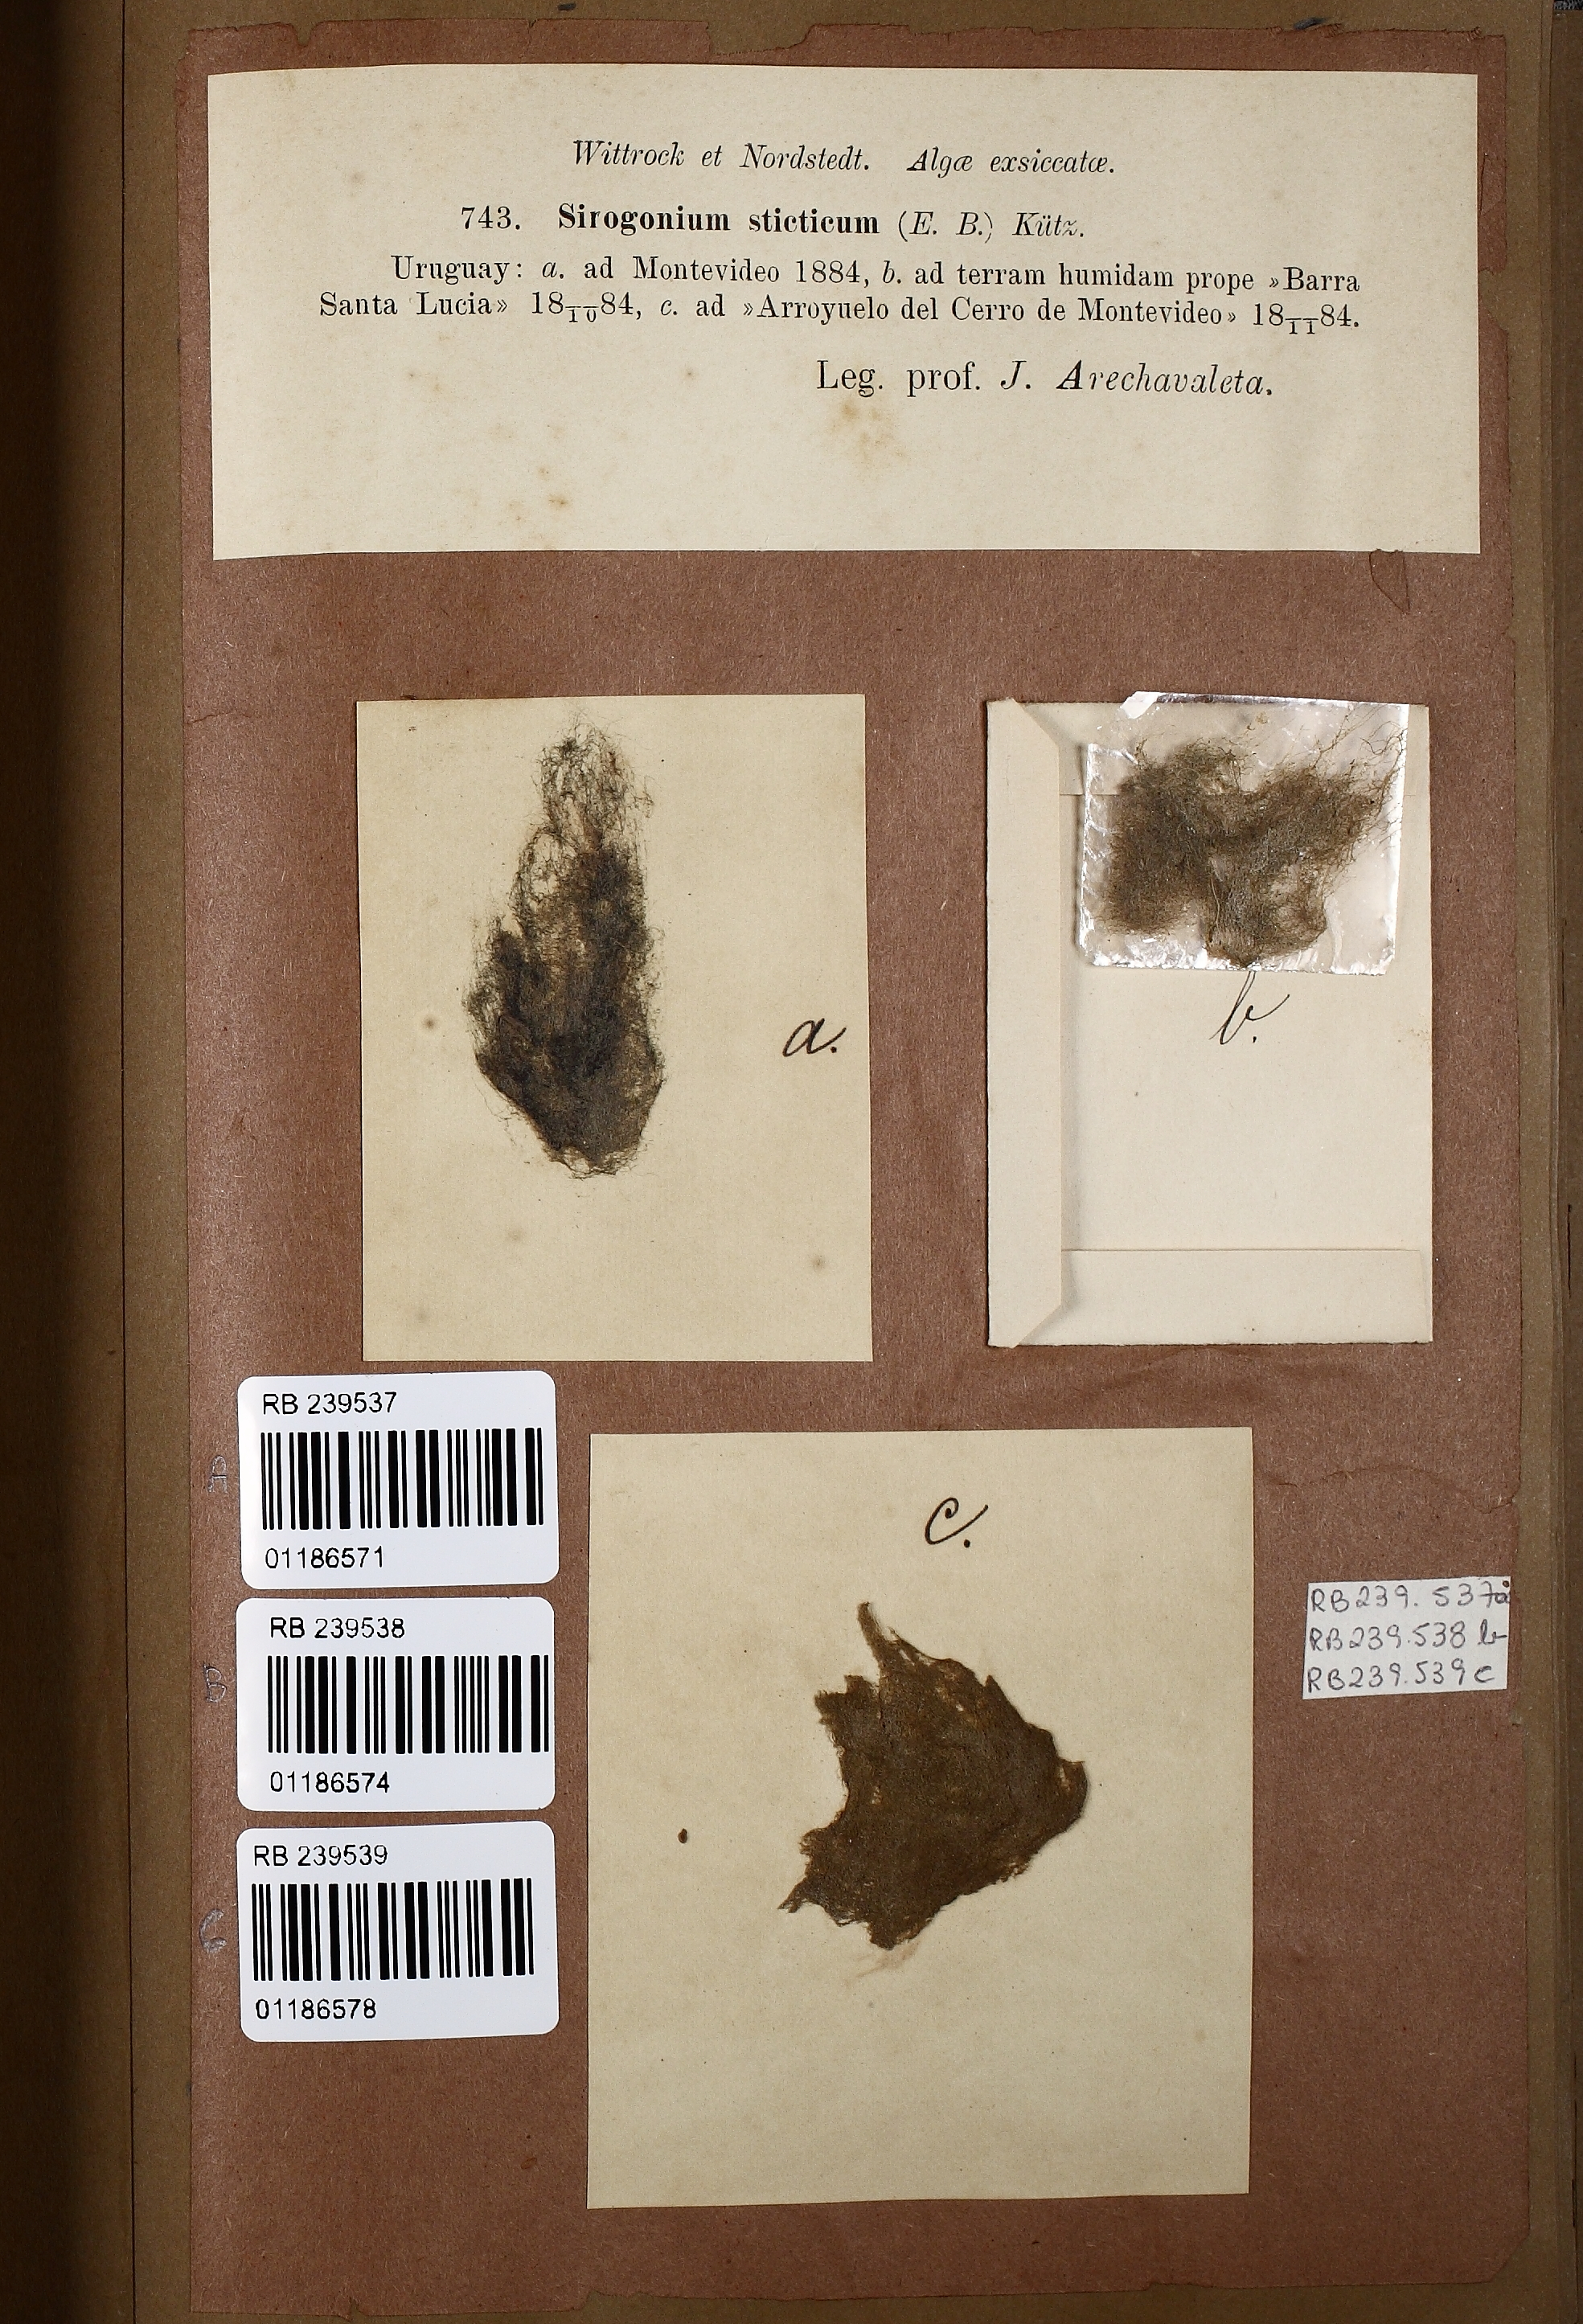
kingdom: Plantae
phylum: Charophyta
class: Zygnematophyceae
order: Zygnematales
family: Zygnemataceae
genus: Sirogonium
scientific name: Sirogonium sticticum
